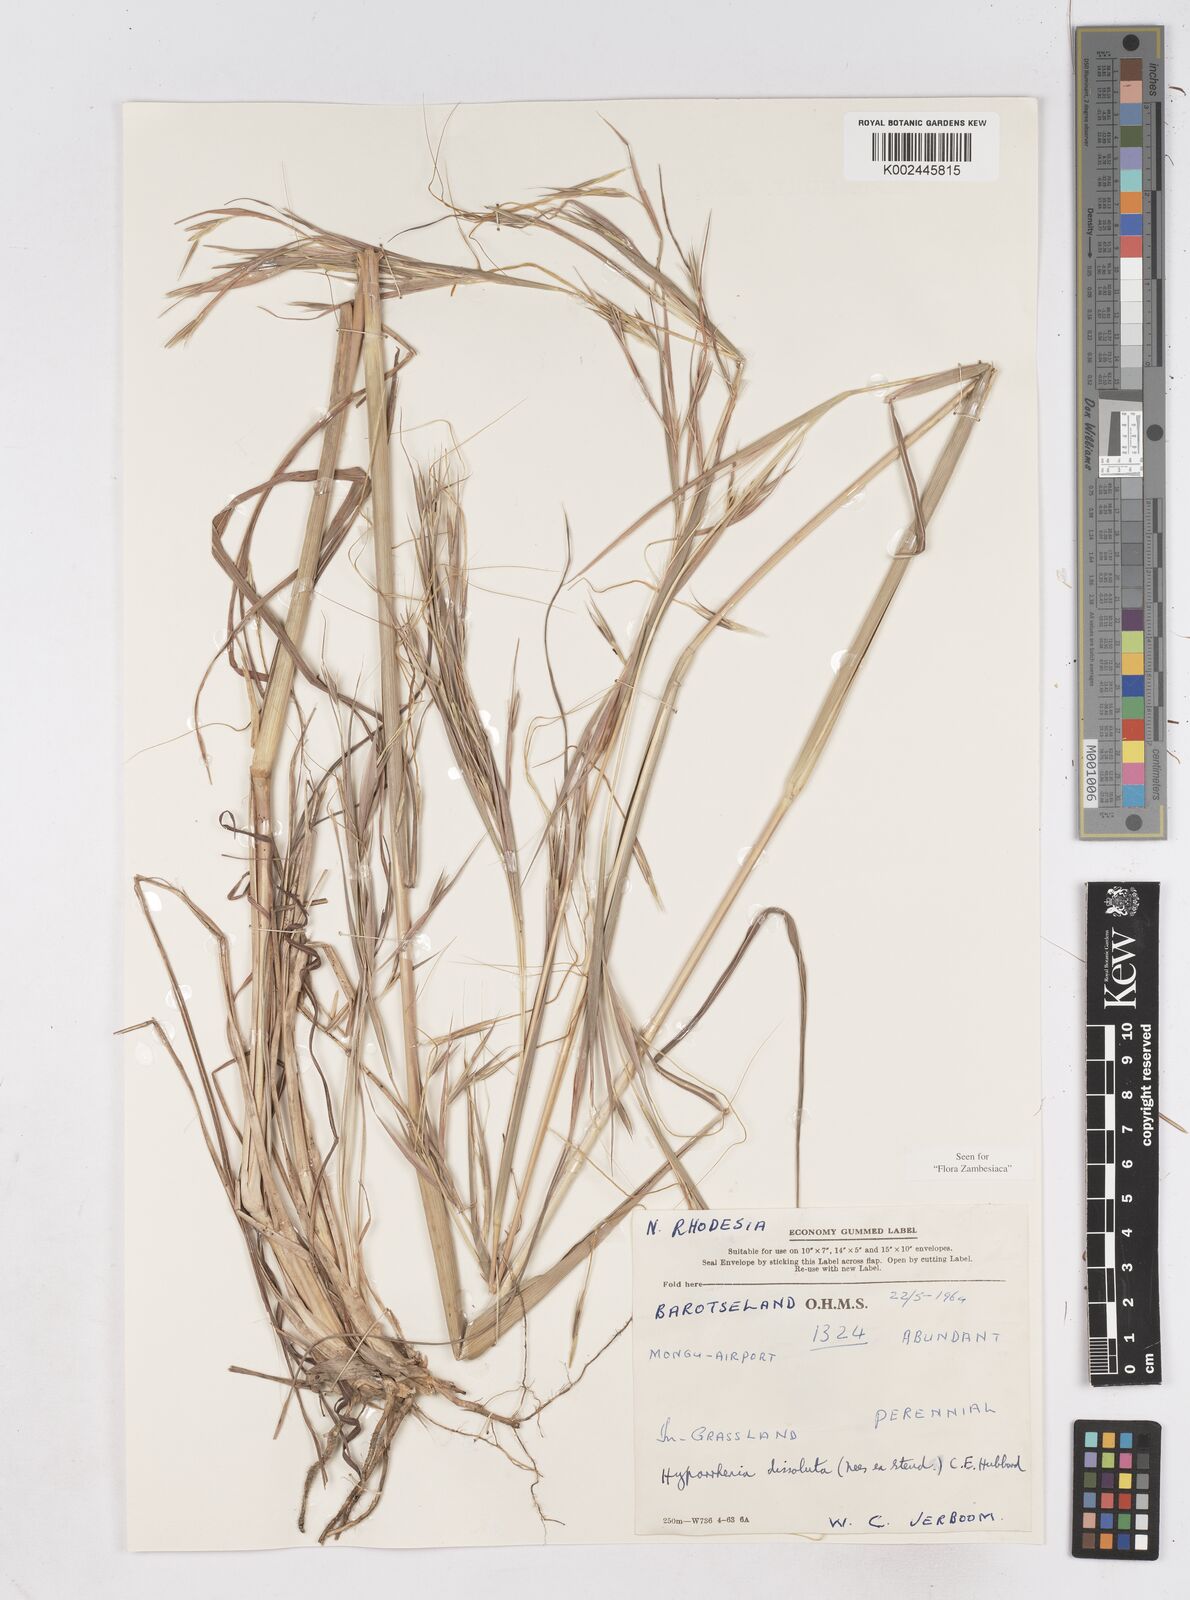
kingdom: Plantae
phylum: Tracheophyta
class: Liliopsida
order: Poales
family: Poaceae
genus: Hyperthelia
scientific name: Hyperthelia dissoluta
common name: Yellow thatching grass
